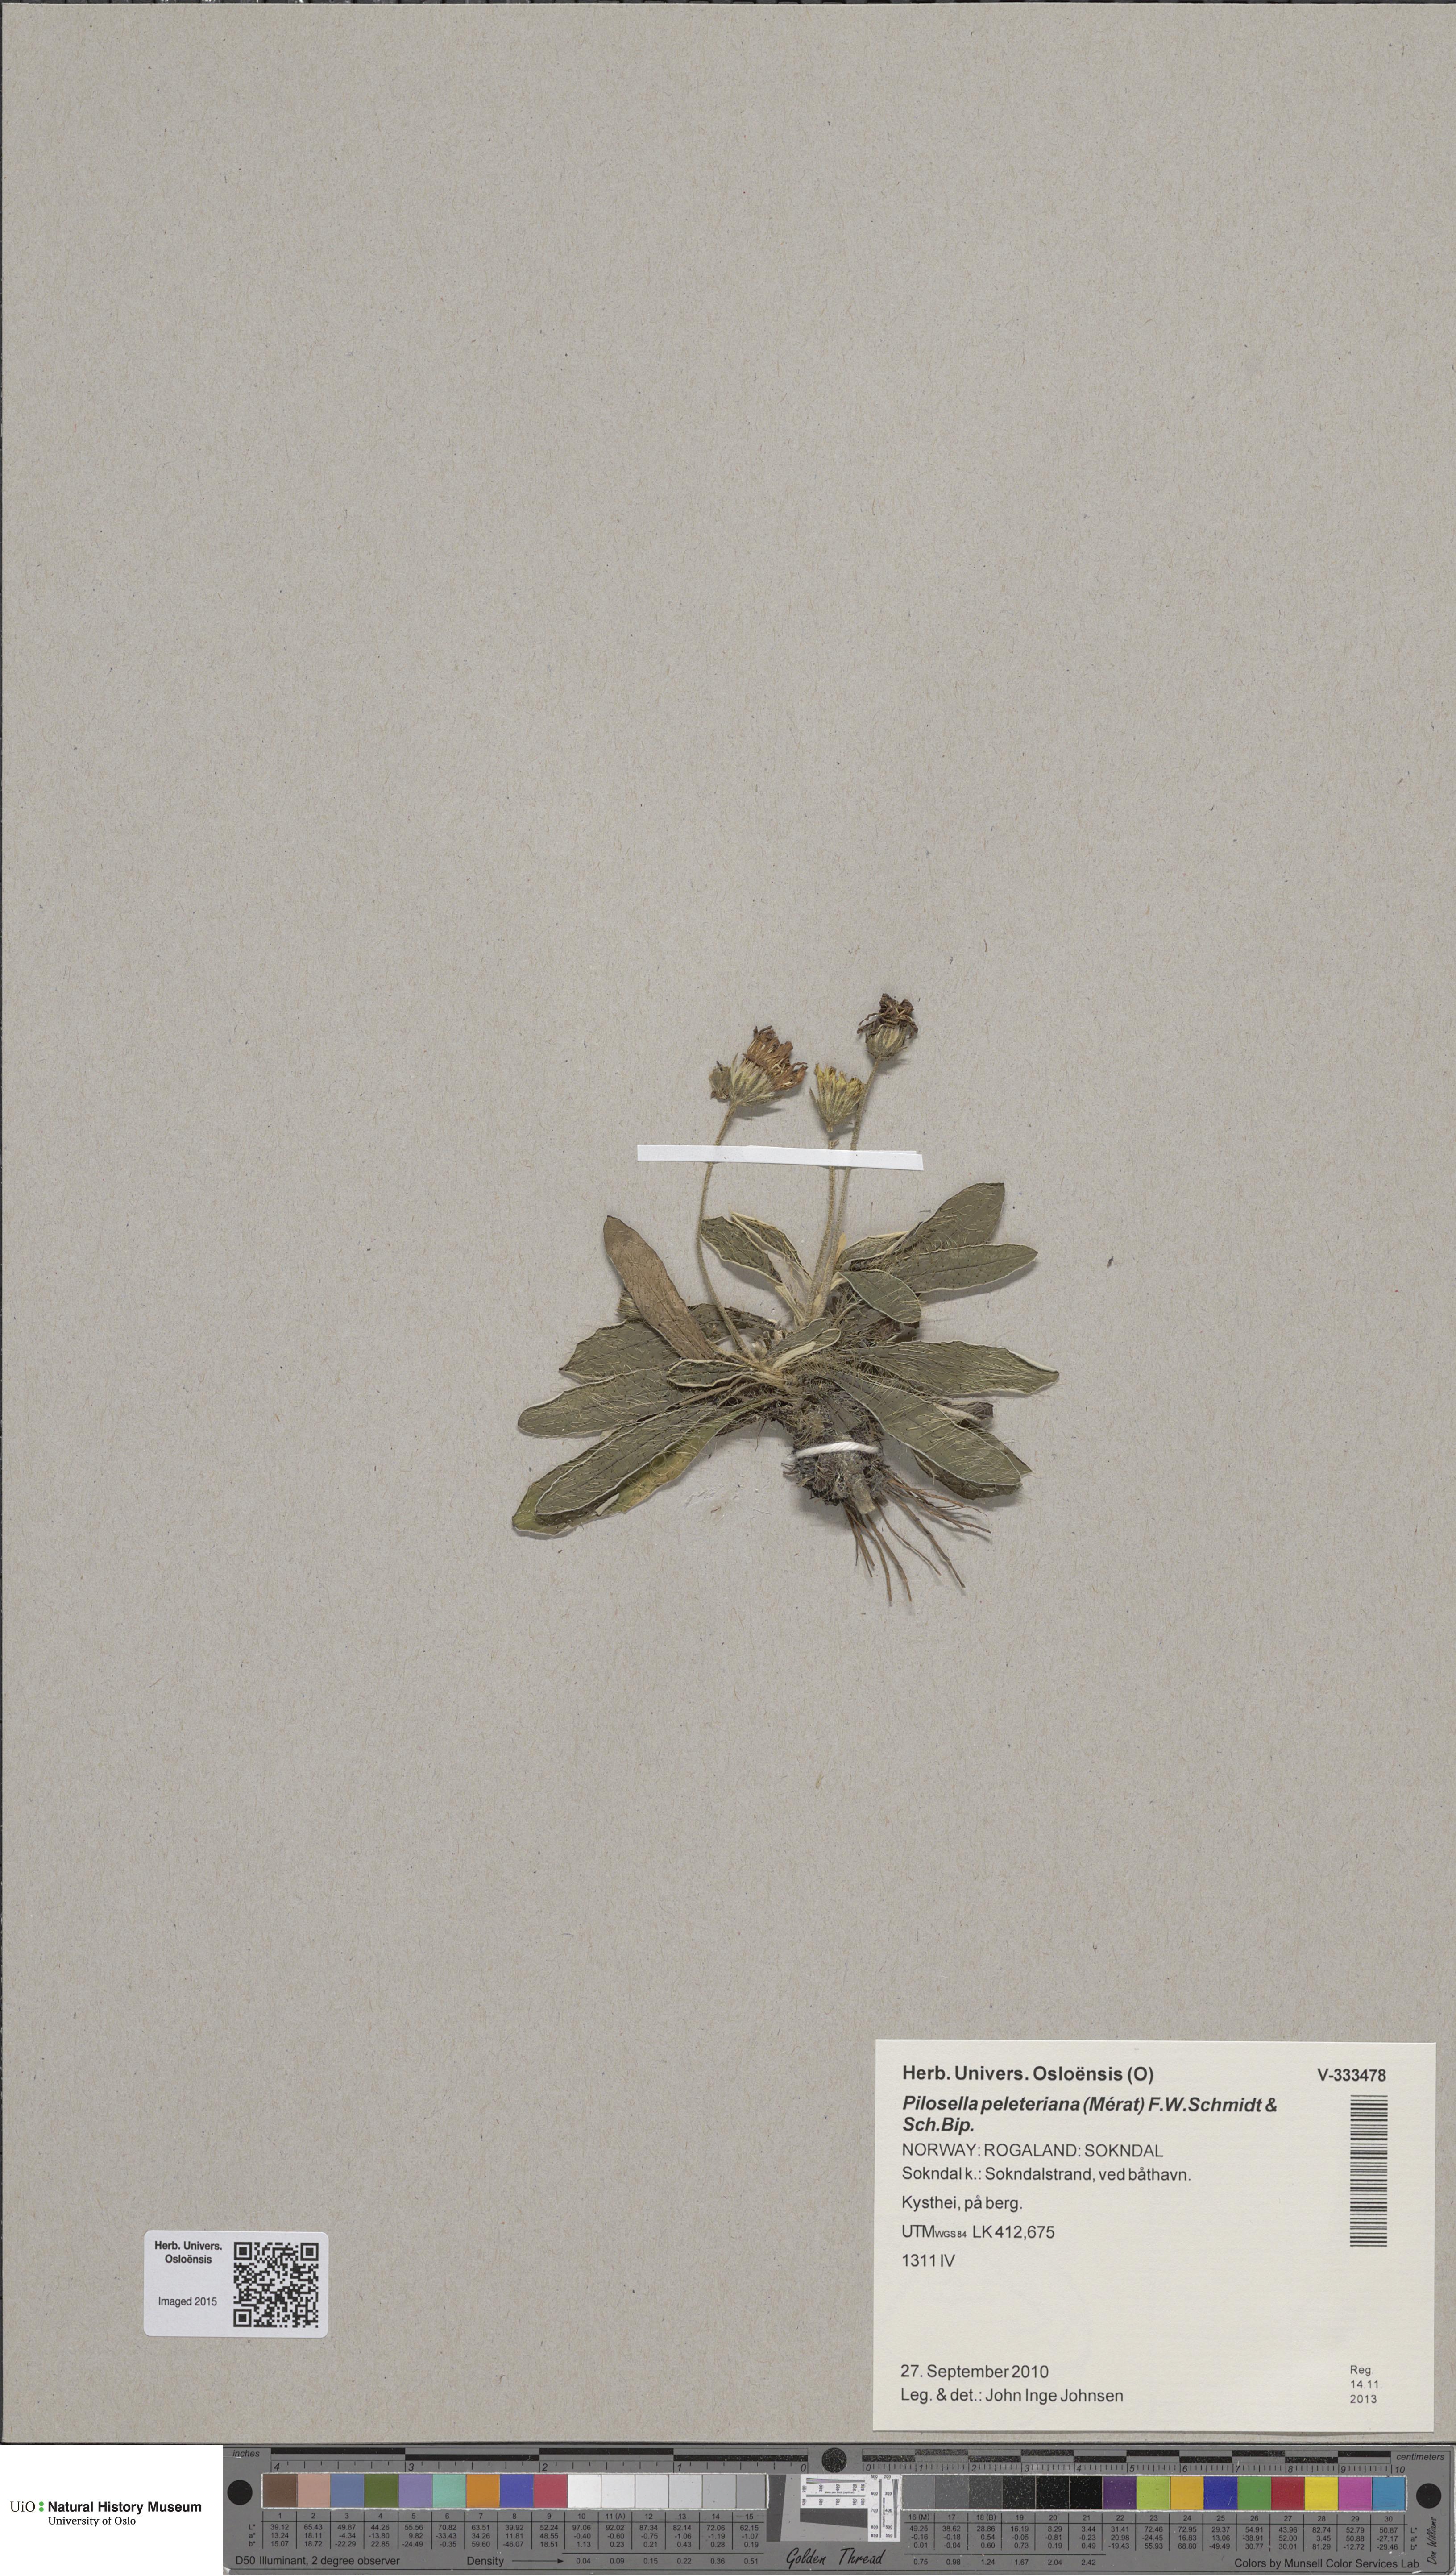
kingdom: Plantae
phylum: Tracheophyta
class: Magnoliopsida
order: Asterales
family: Asteraceae
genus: Pilosella
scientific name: Pilosella peleteriana
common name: Shaggy mouse-ear-hawkweed
